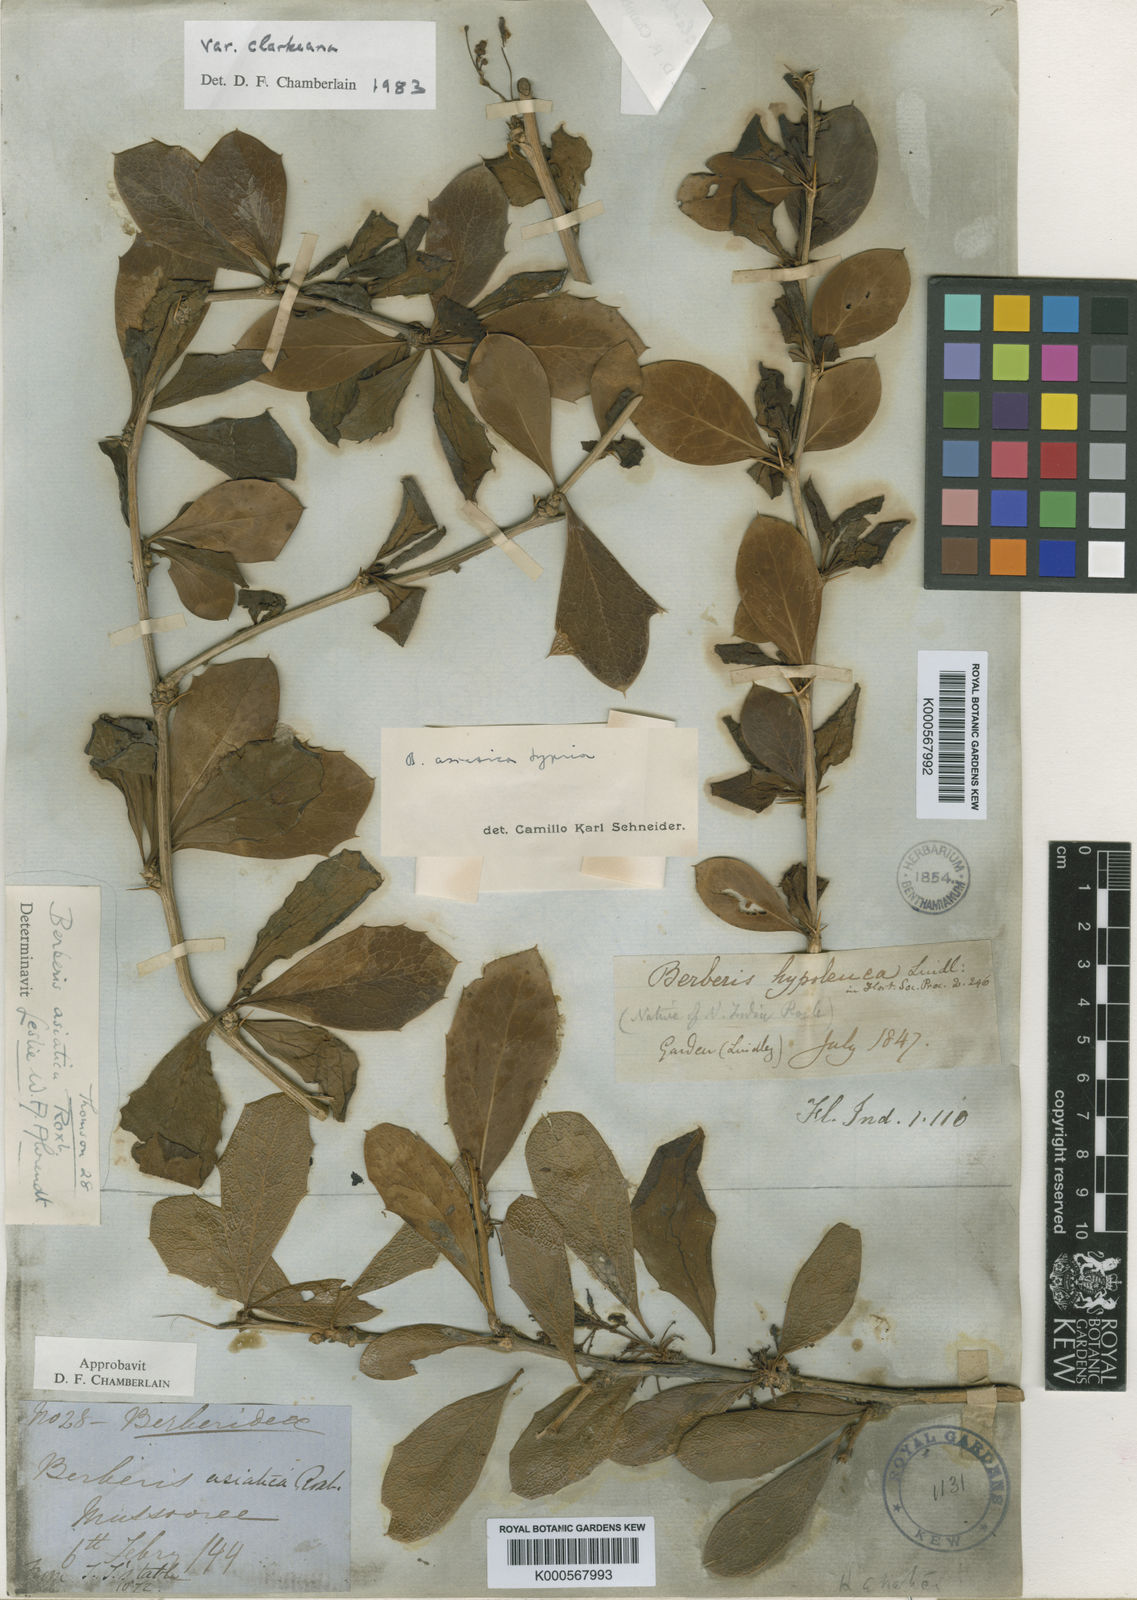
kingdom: Plantae
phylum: Tracheophyta
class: Magnoliopsida
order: Ranunculales
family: Berberidaceae
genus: Berberis
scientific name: Berberis asiatica
